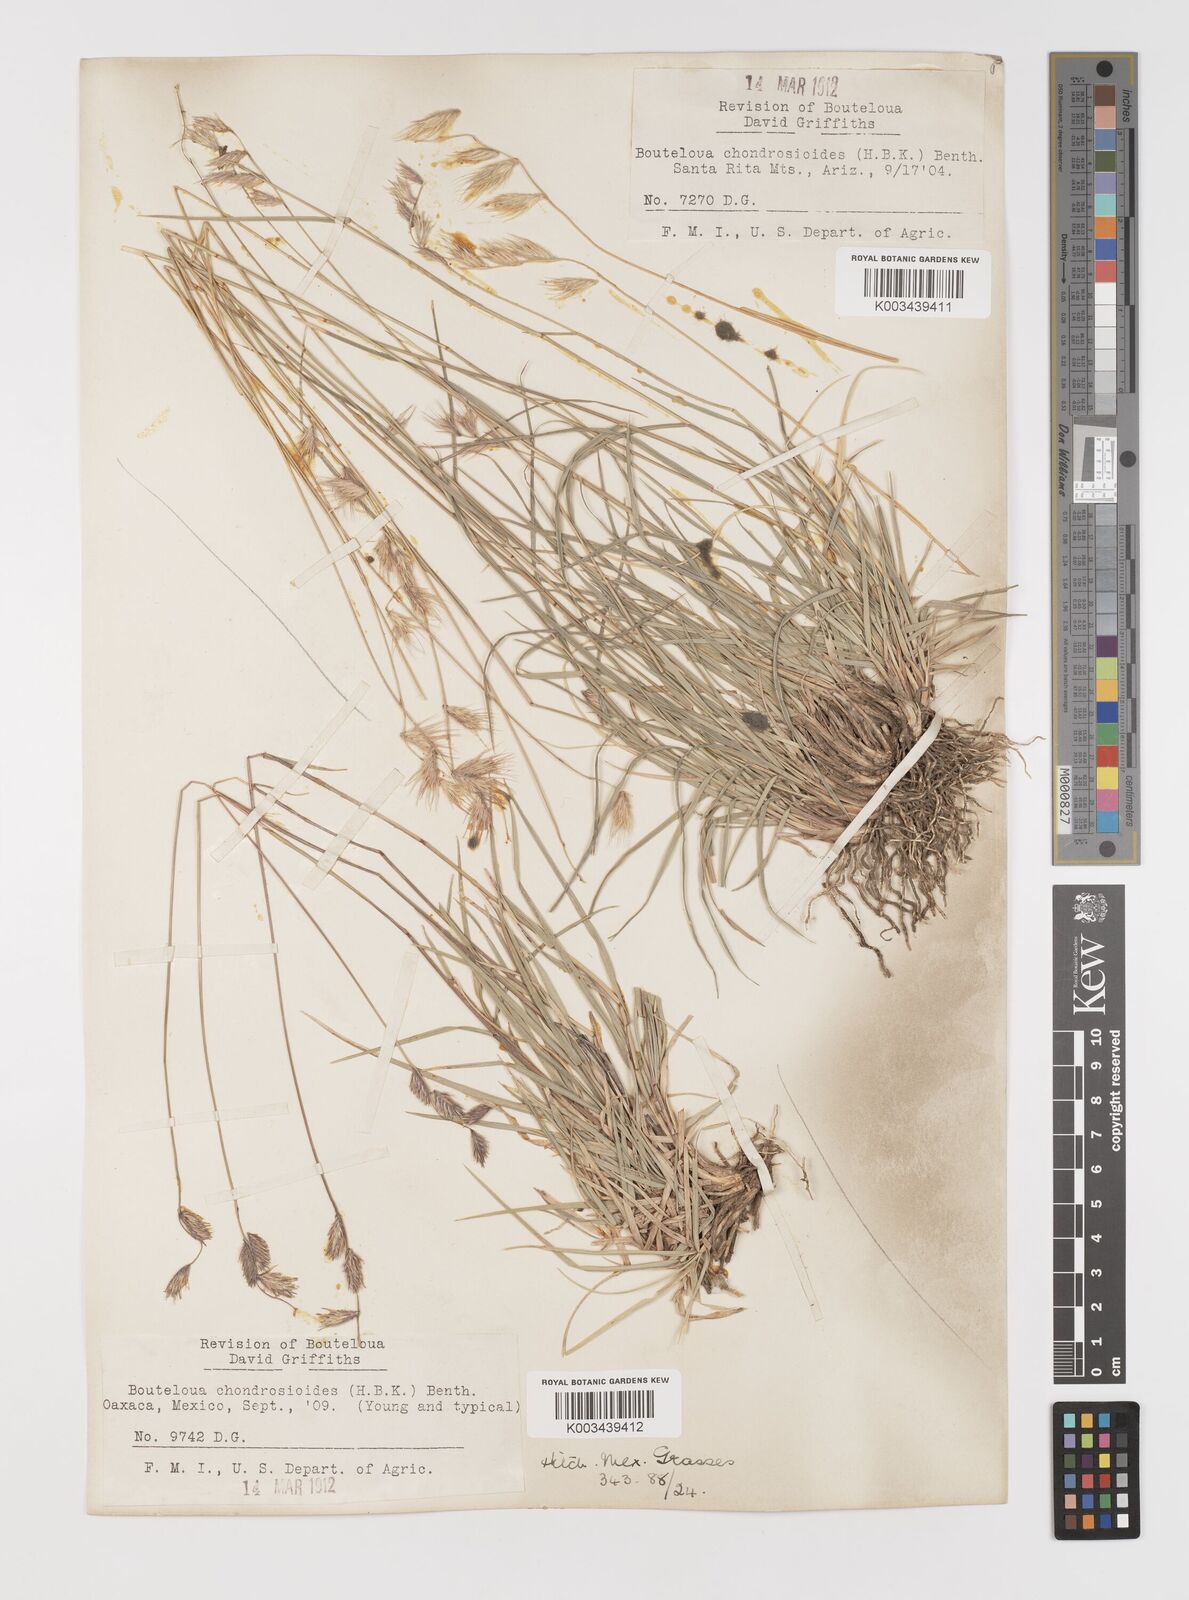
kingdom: Plantae
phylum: Tracheophyta
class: Liliopsida
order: Poales
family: Poaceae
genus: Bouteloua
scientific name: Bouteloua chondrosioides
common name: Sprucetop grama
